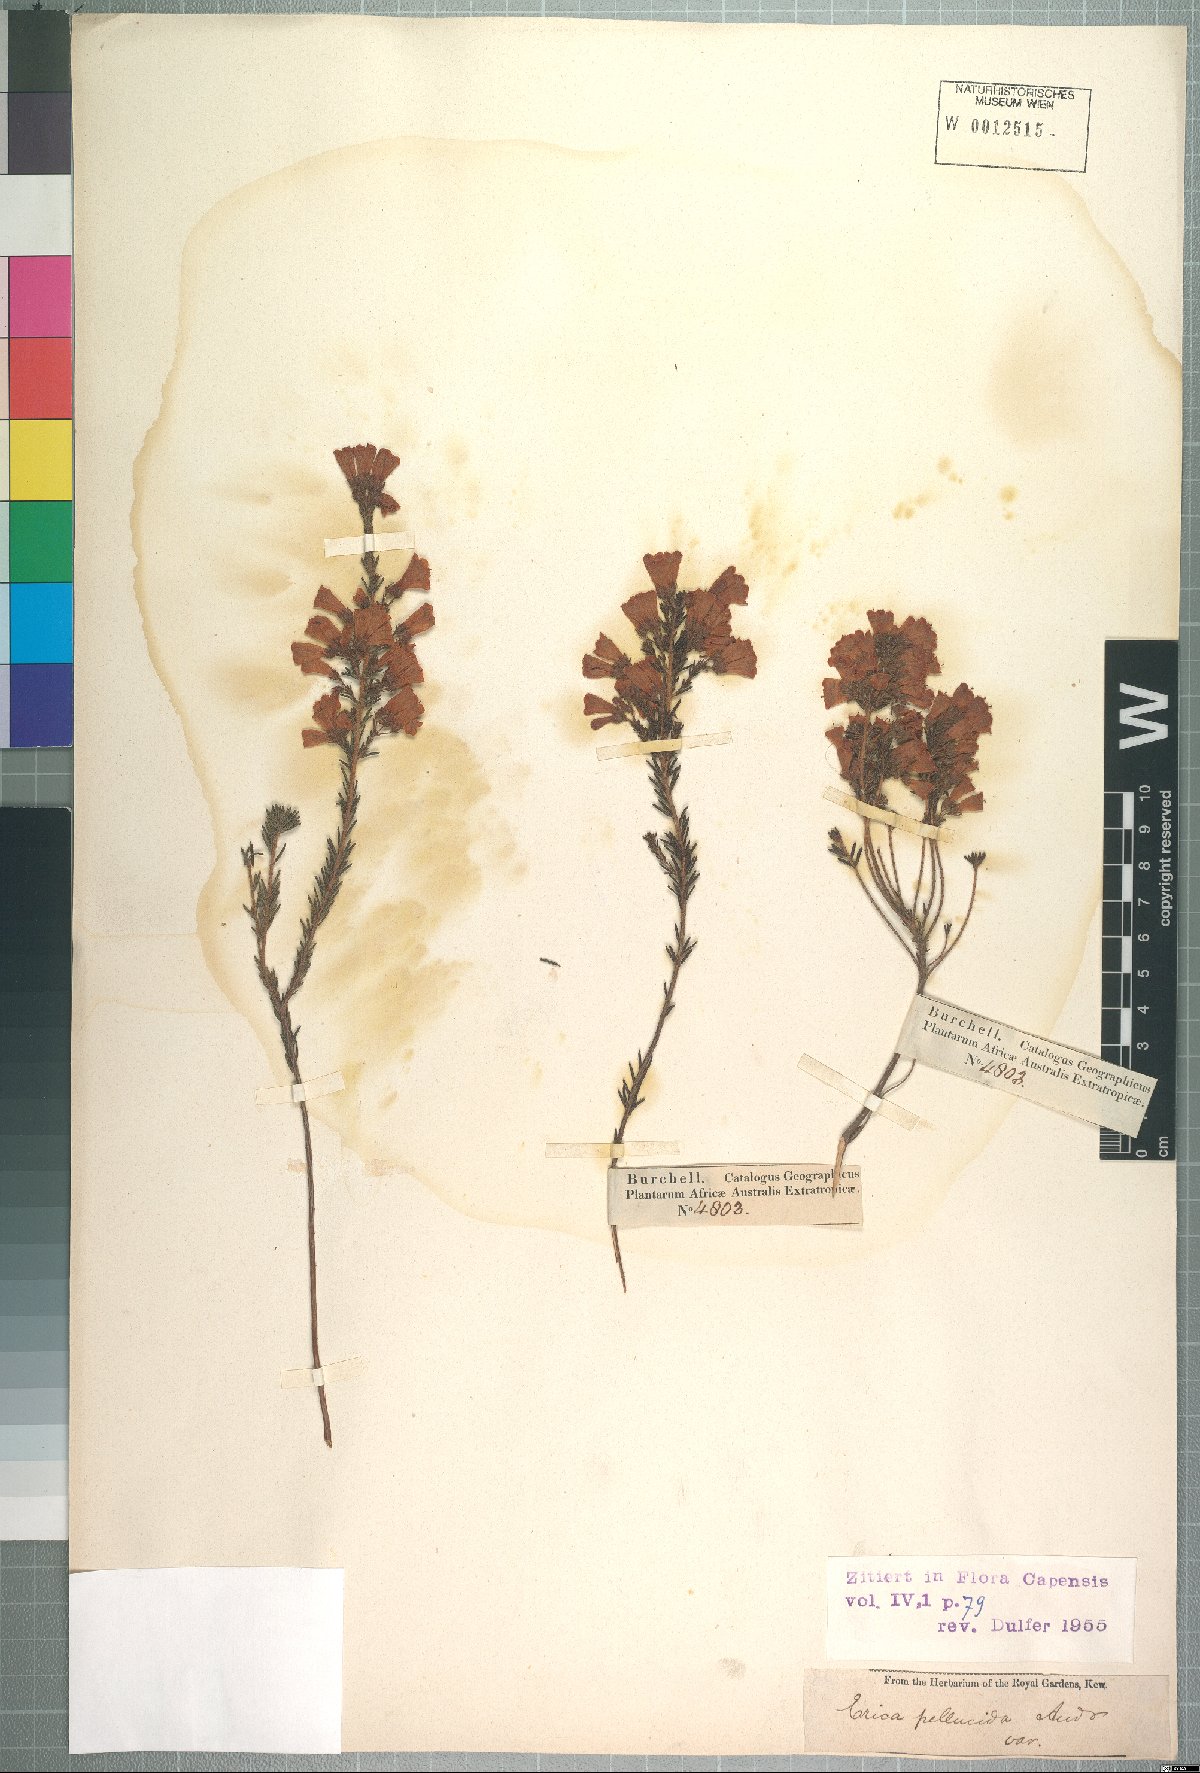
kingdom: Plantae
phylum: Tracheophyta
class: Magnoliopsida
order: Ericales
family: Ericaceae
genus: Erica
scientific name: Erica glandulosa
